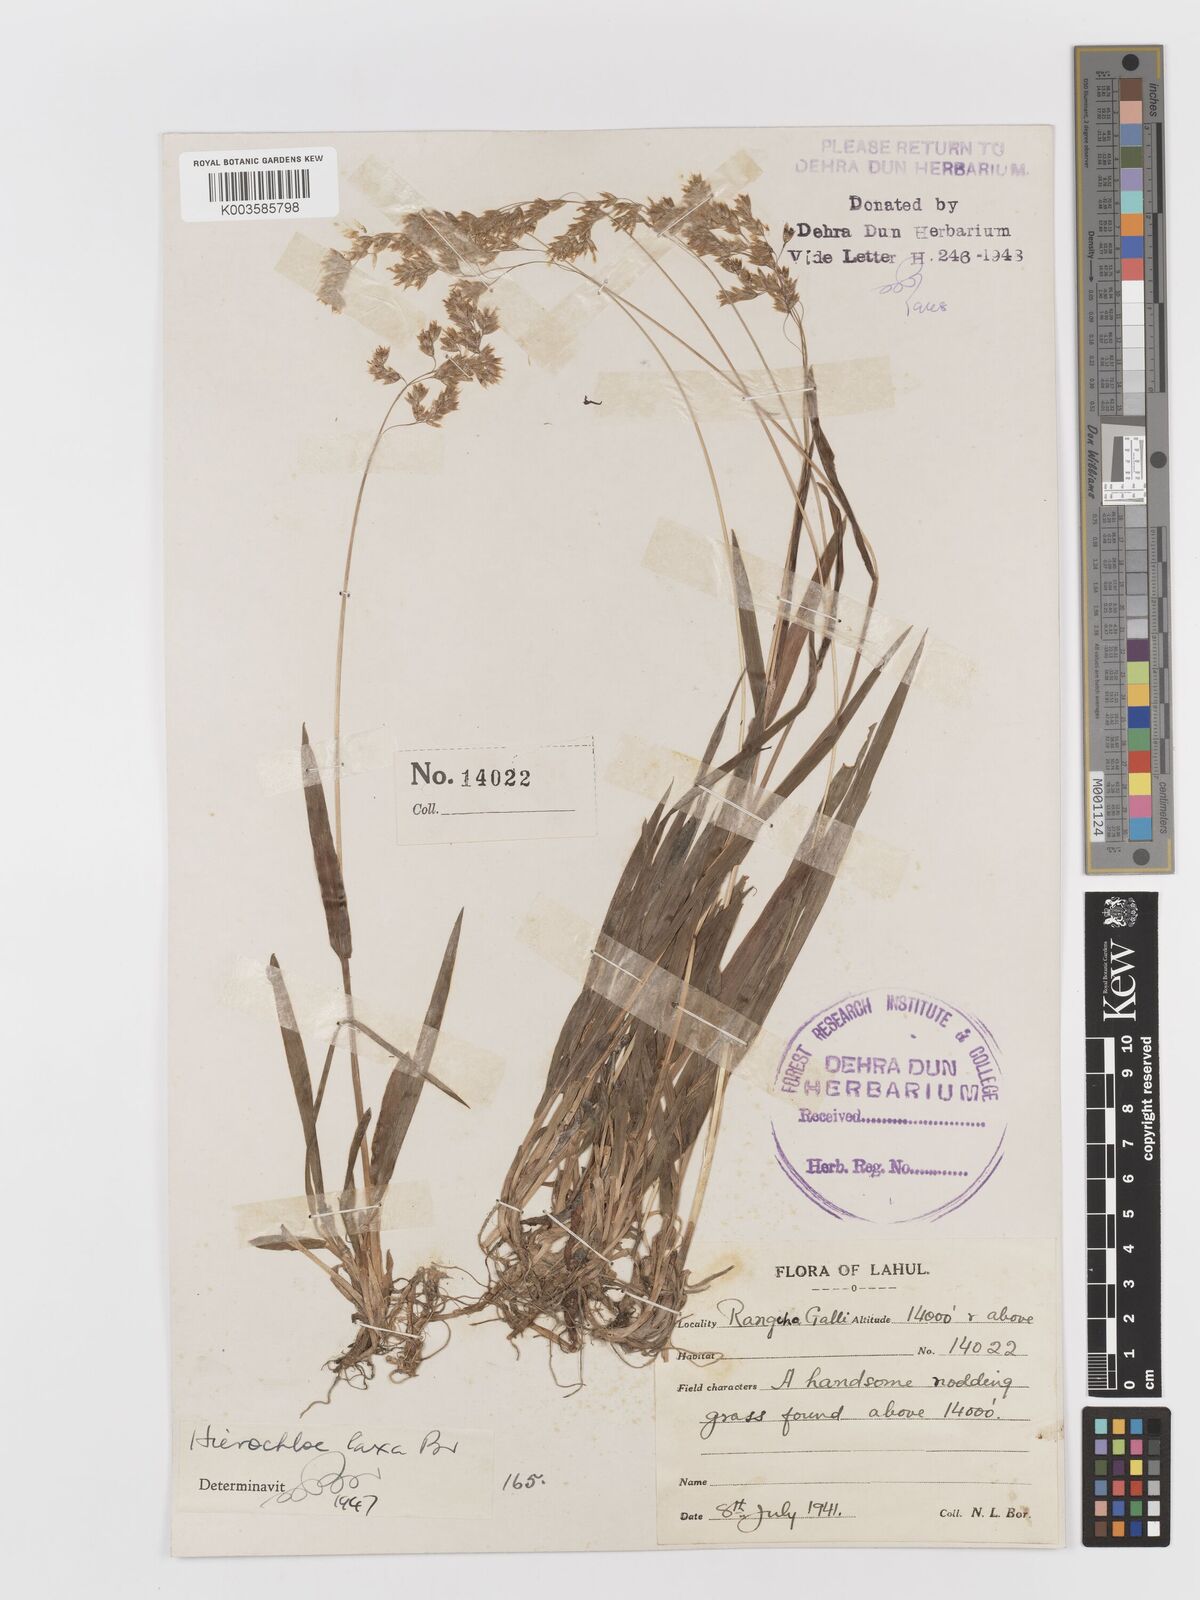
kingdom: Plantae
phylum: Tracheophyta
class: Liliopsida
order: Poales
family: Poaceae
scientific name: Poaceae
